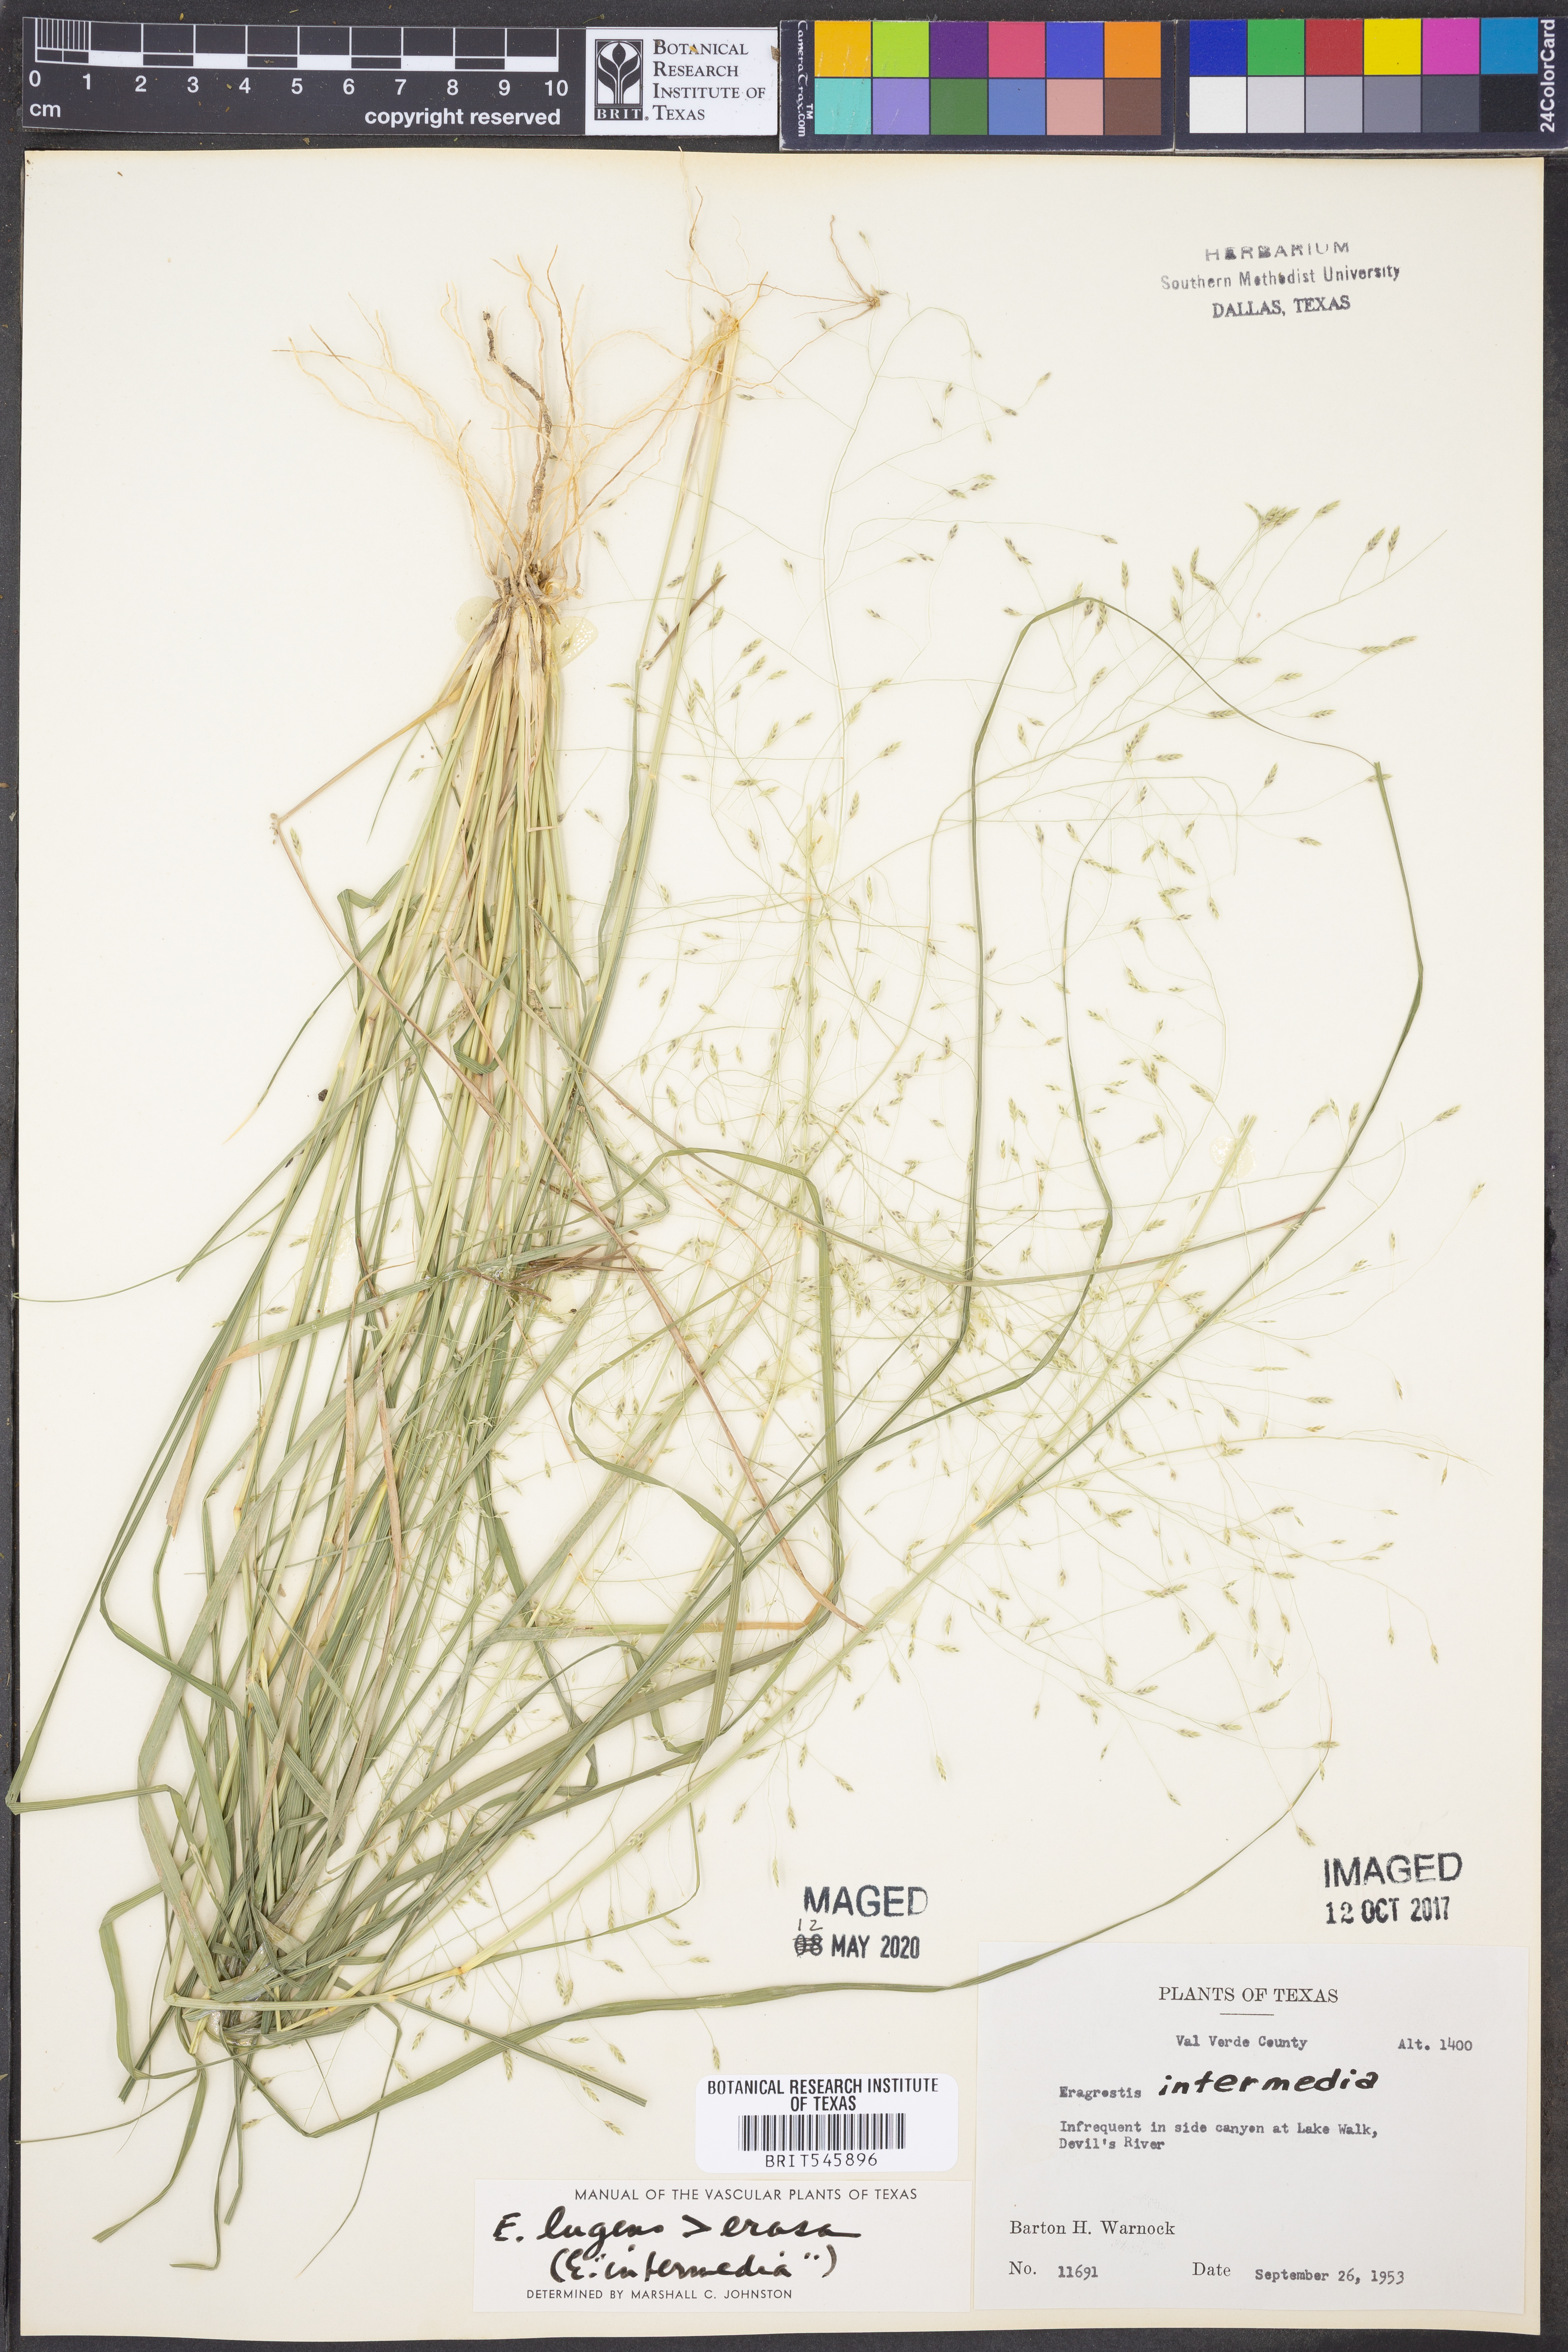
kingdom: Plantae
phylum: Tracheophyta
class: Liliopsida
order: Poales
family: Poaceae
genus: Eragrostis
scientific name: Eragrostis intermedia
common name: Plains love grass
